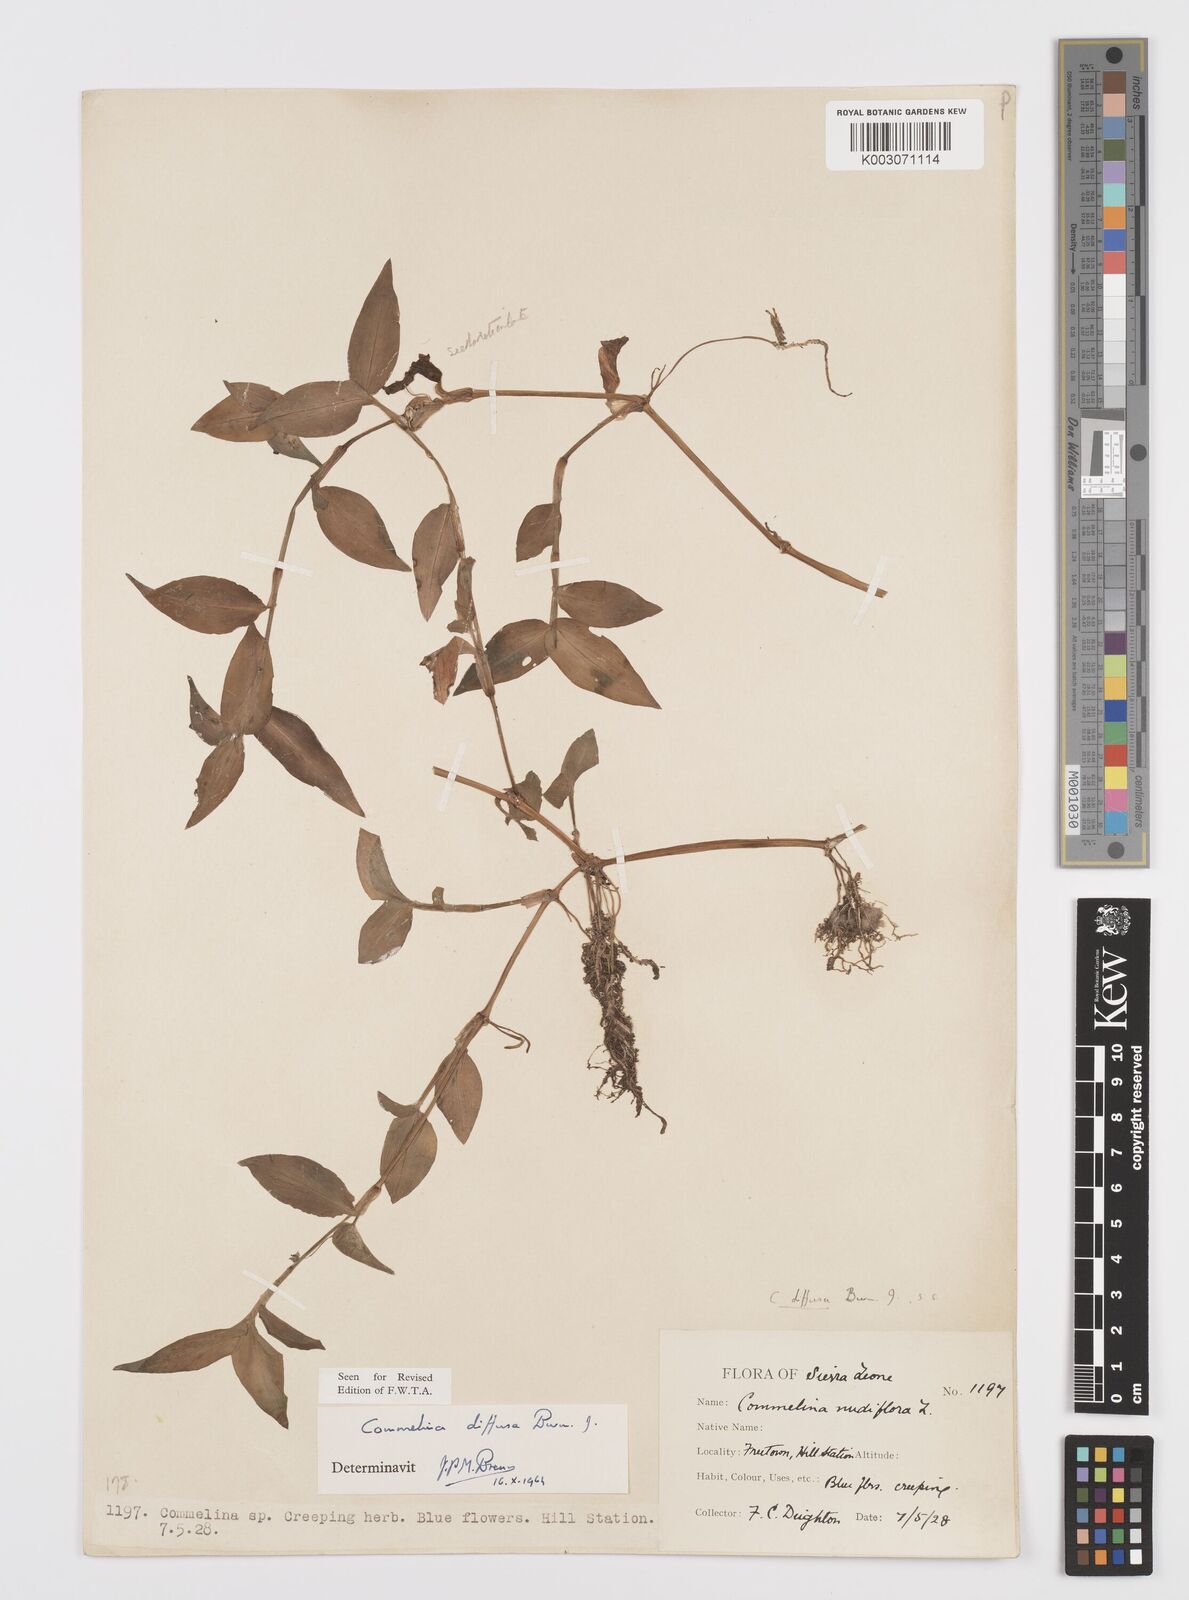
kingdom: Plantae
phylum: Tracheophyta
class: Liliopsida
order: Commelinales
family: Commelinaceae
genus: Commelina
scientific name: Commelina diffusa
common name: Climbing dayflower
